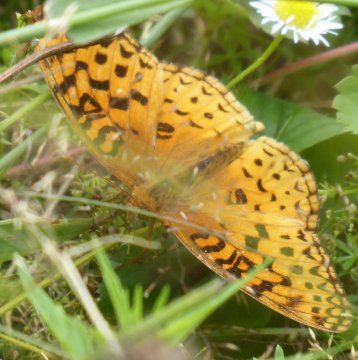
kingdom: Animalia
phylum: Arthropoda
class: Insecta
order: Lepidoptera
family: Nymphalidae
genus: Speyeria
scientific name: Speyeria aphrodite
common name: Aphrodite Fritillary
